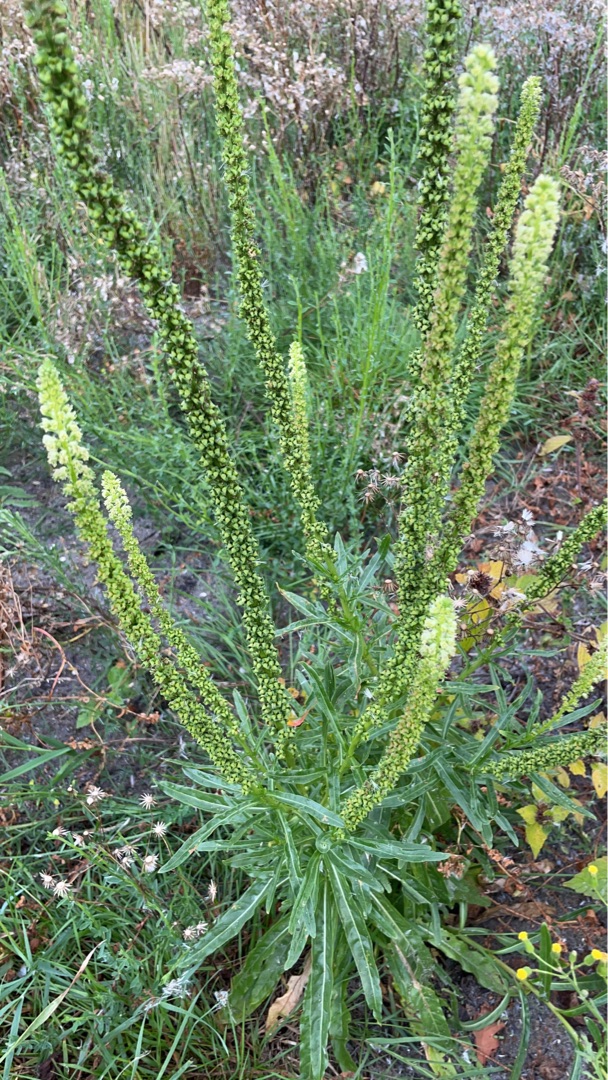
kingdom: Plantae
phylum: Tracheophyta
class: Magnoliopsida
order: Brassicales
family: Resedaceae
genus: Reseda
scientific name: Reseda luteola
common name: Farve-reseda
